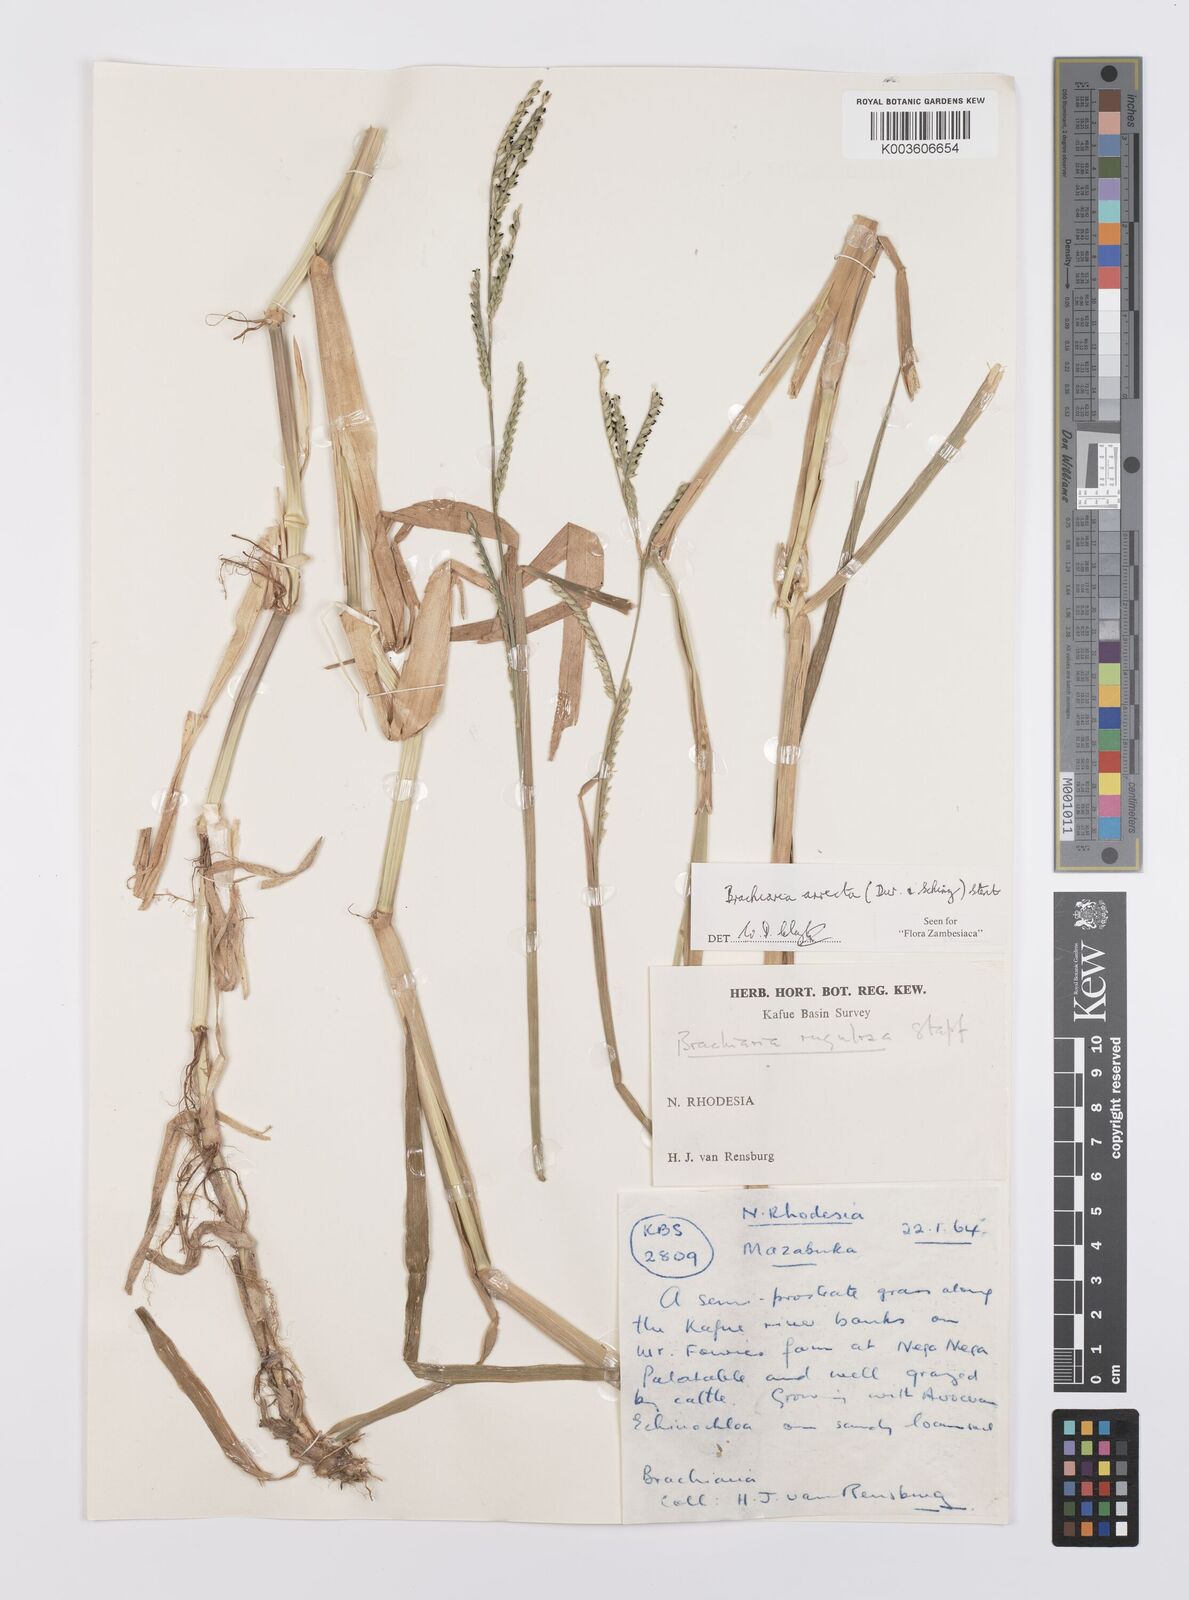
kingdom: Plantae
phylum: Tracheophyta
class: Liliopsida
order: Poales
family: Poaceae
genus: Urochloa
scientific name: Urochloa arrecta
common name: African signalgrass
